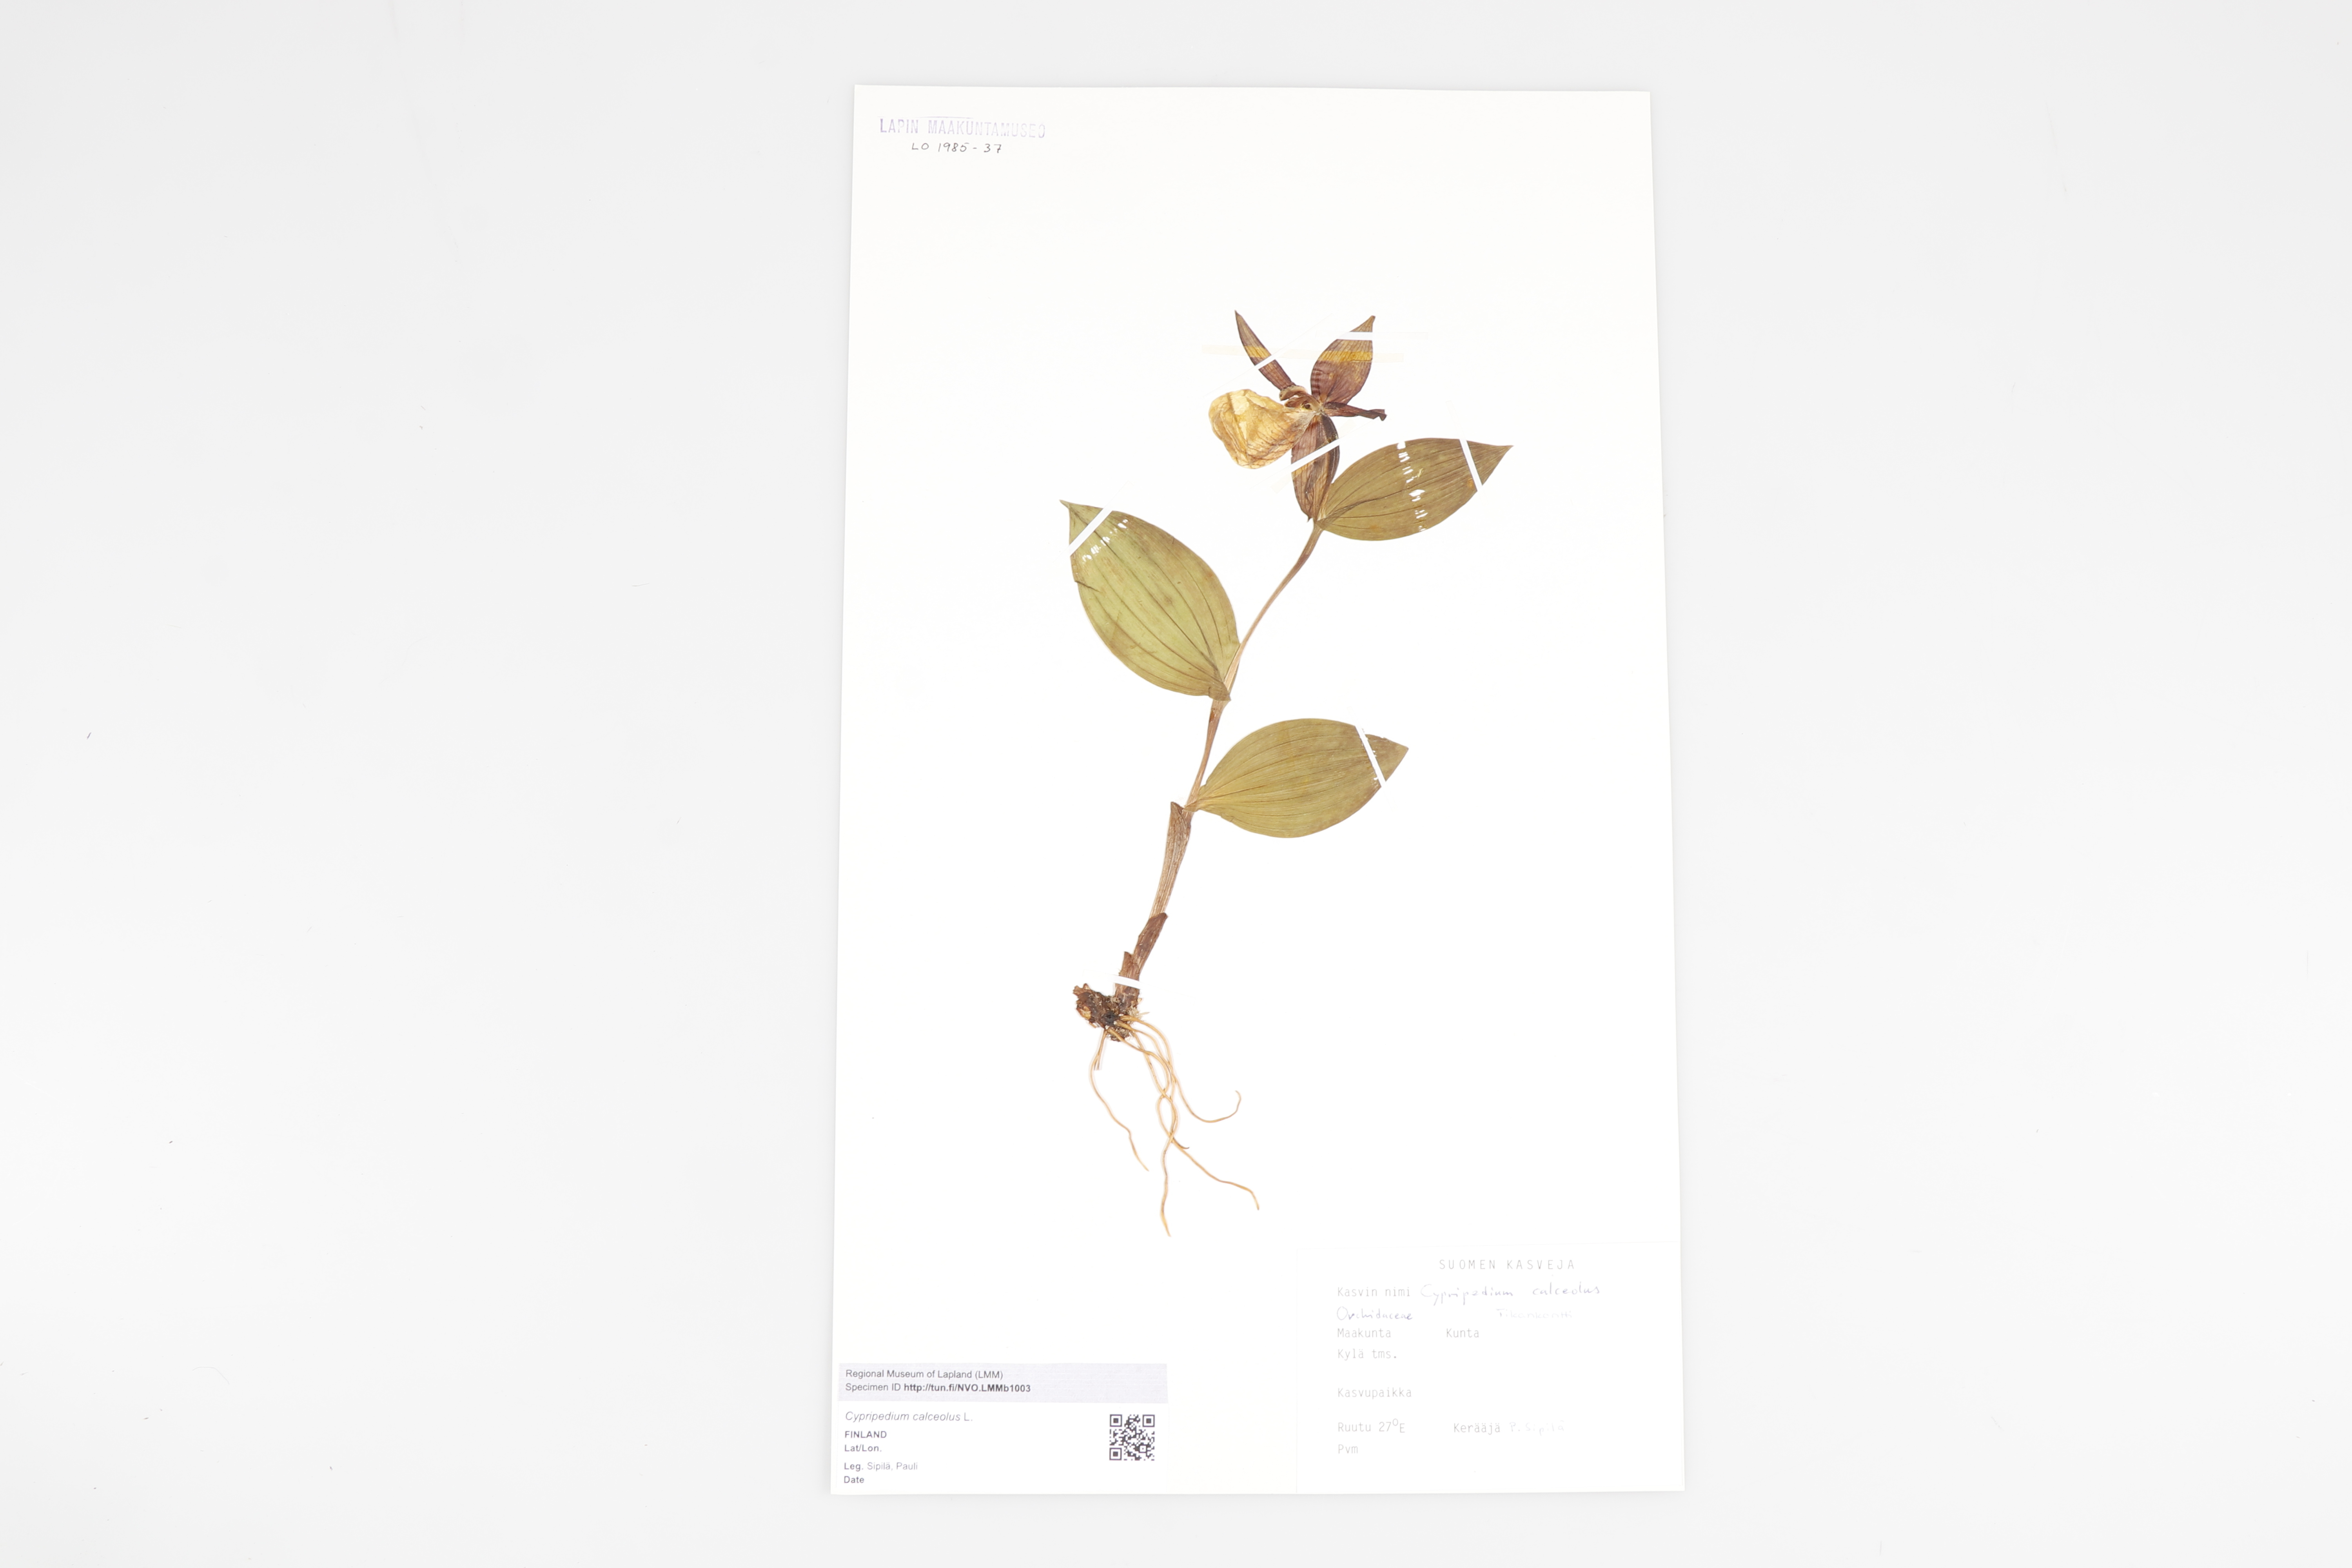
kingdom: Plantae
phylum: Tracheophyta
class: Liliopsida
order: Asparagales
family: Orchidaceae
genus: Cypripedium
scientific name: Cypripedium calceolus
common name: Lady's-slipper
